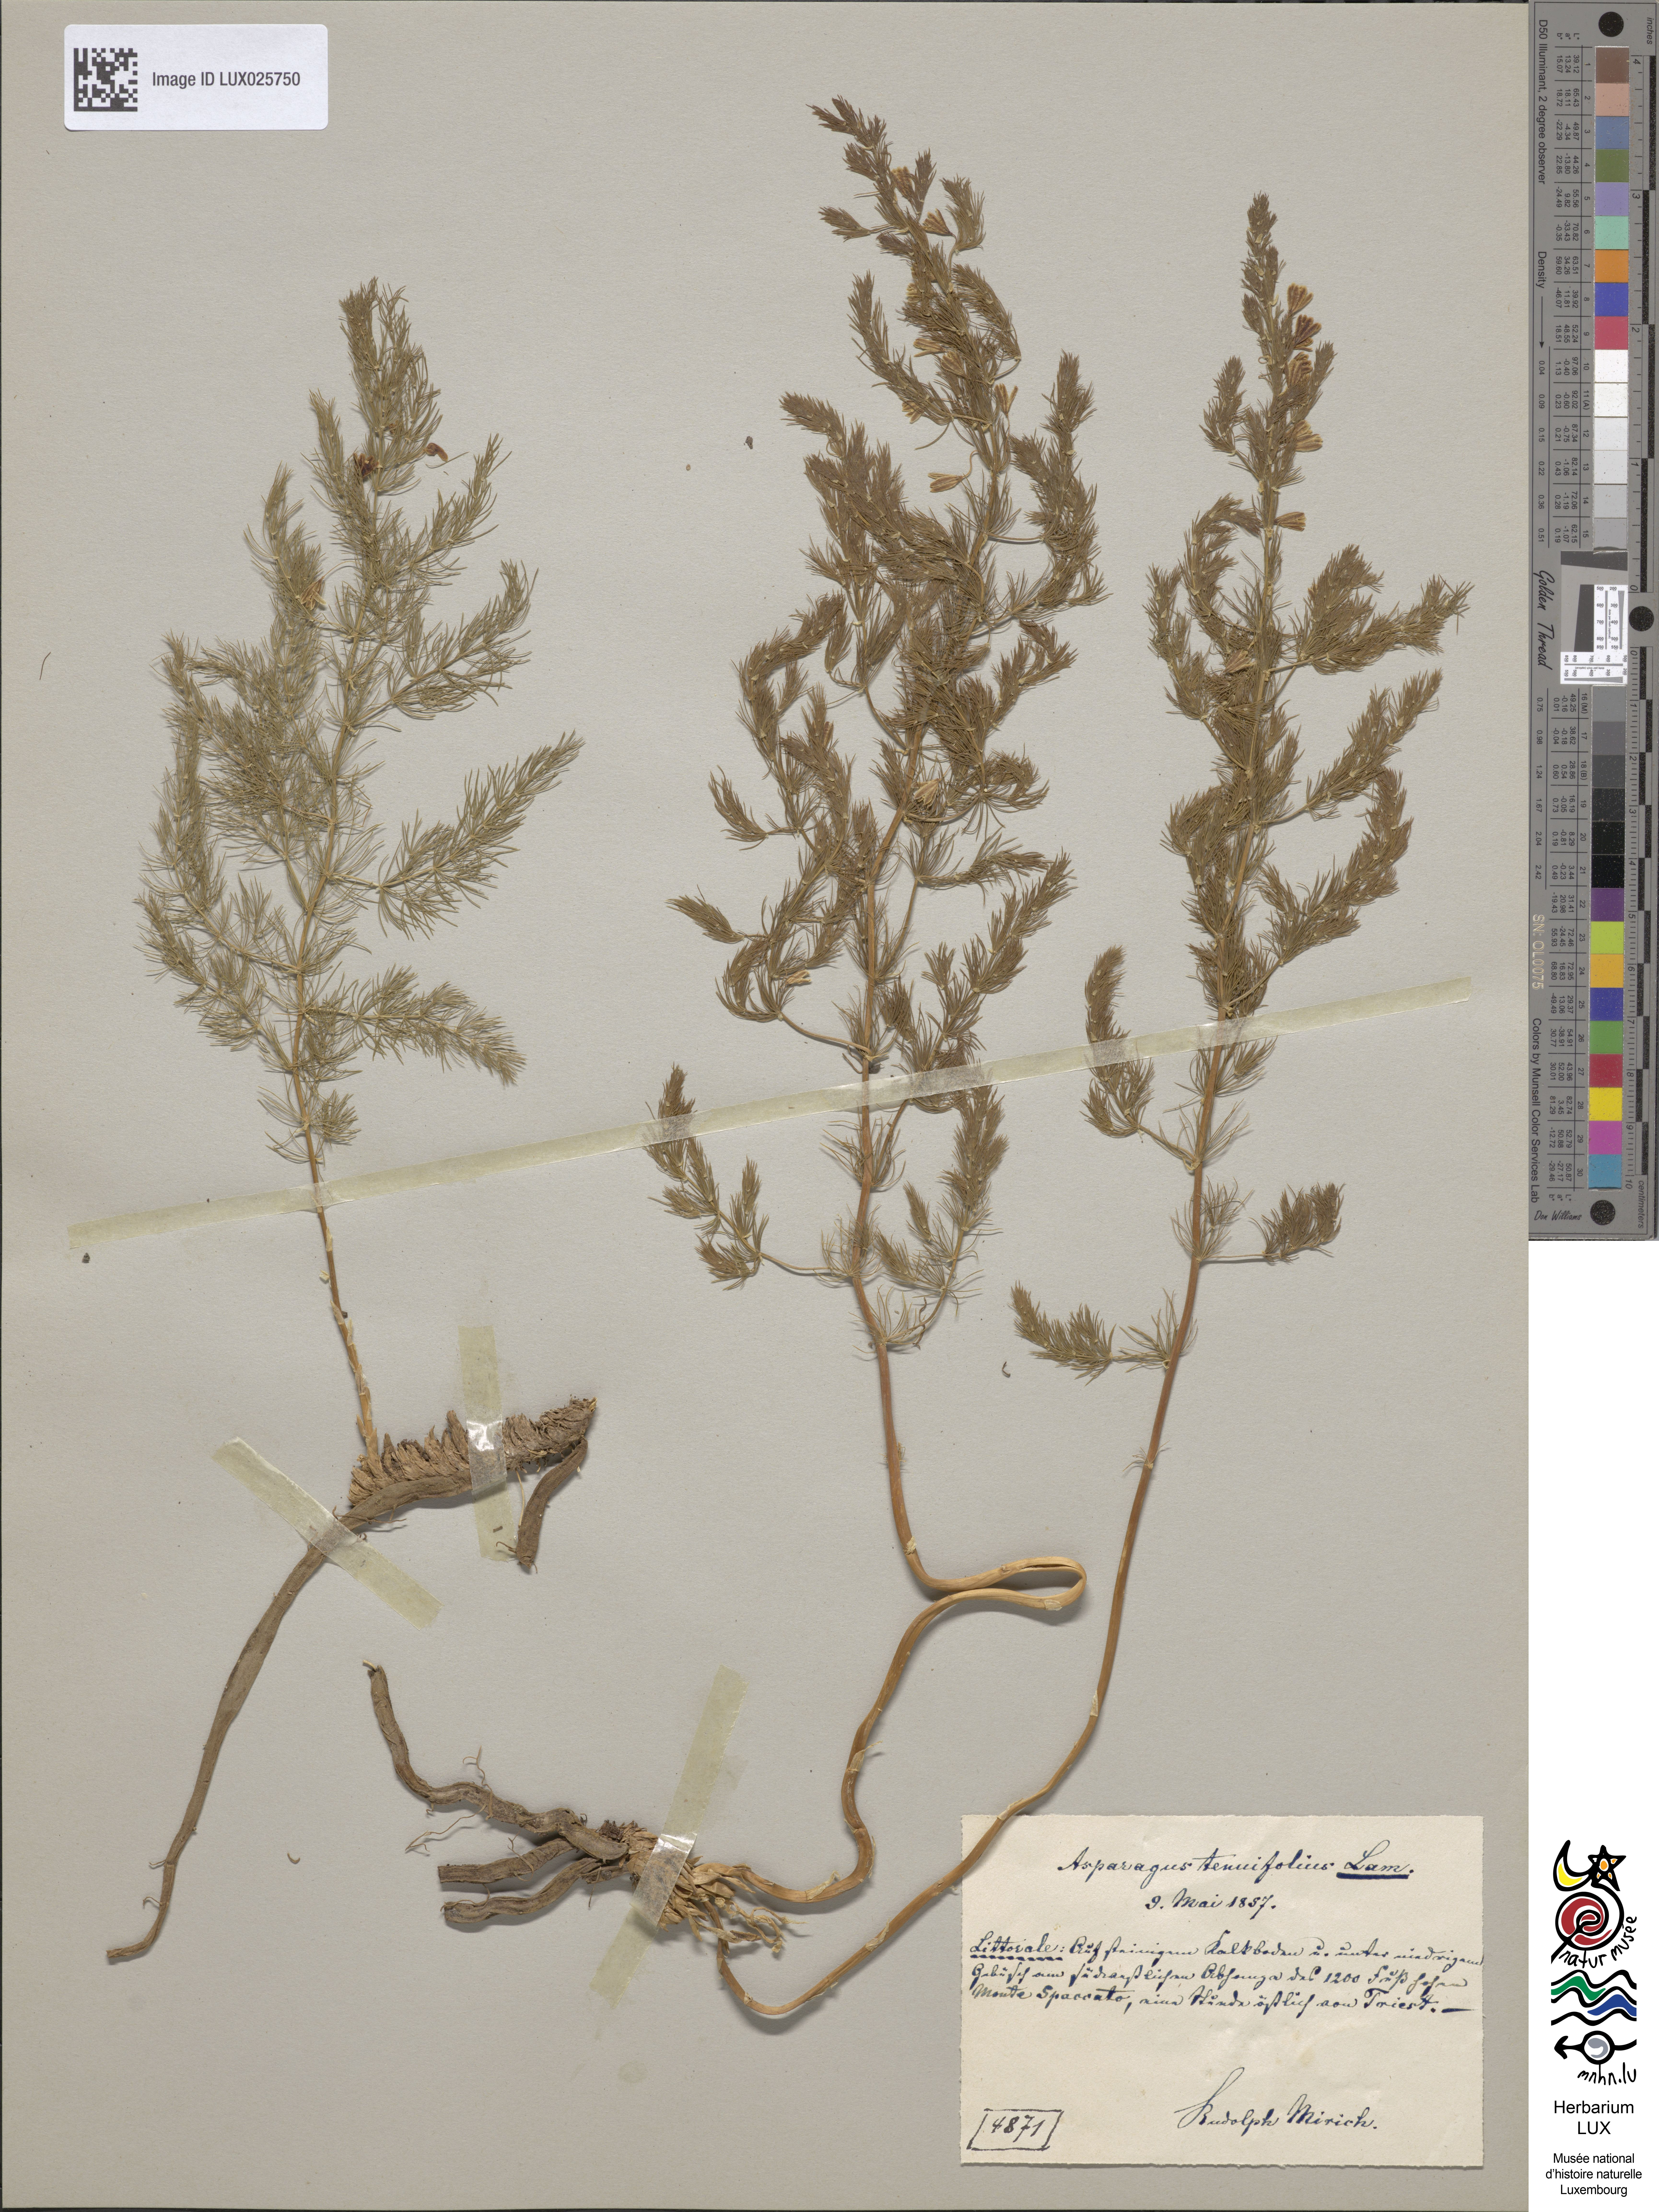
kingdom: Plantae
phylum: Tracheophyta
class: Liliopsida
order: Asparagales
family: Asparagaceae
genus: Asparagus
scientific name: Asparagus tenuifolius
